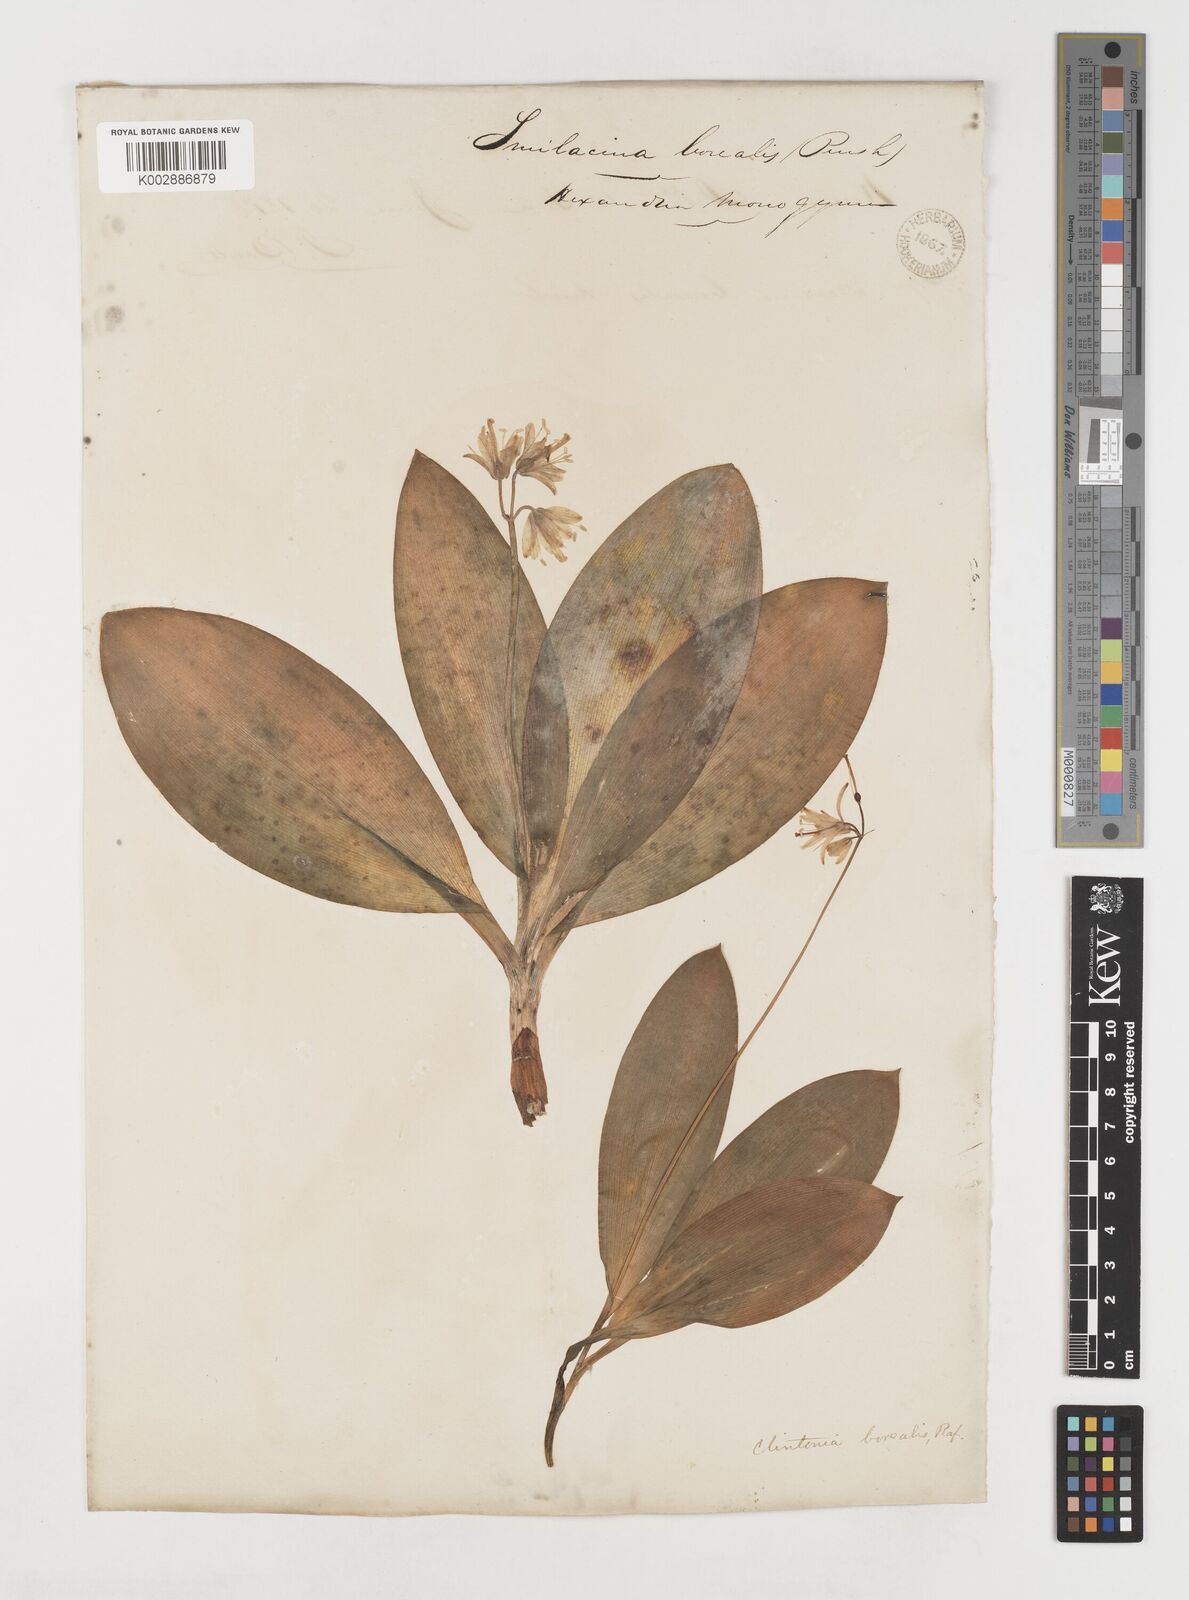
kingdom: Plantae
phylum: Tracheophyta
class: Liliopsida
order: Liliales
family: Liliaceae
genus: Clintonia
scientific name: Clintonia borealis
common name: Yellow clintonia
